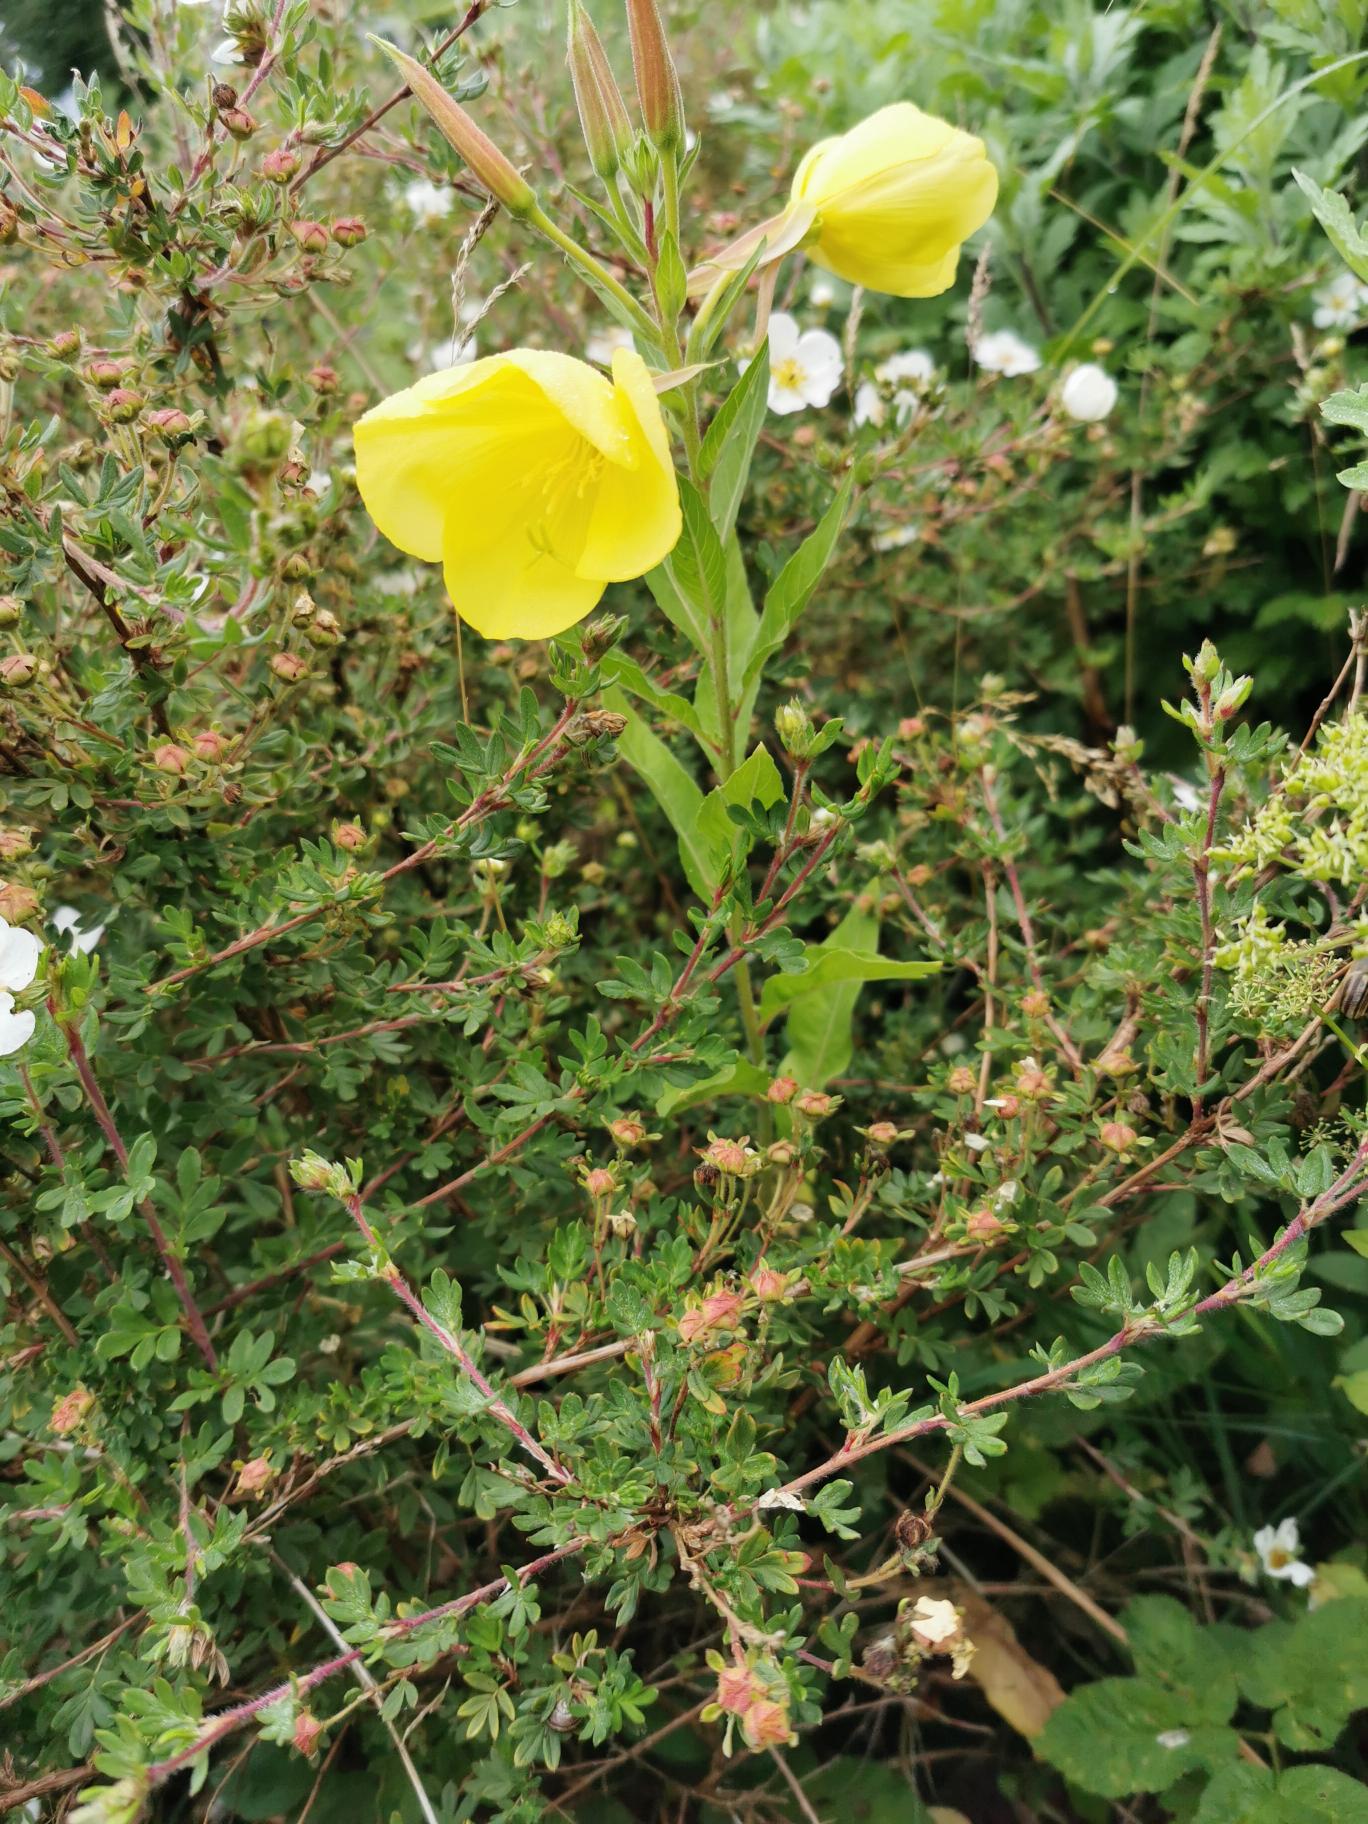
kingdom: Plantae
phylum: Tracheophyta
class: Magnoliopsida
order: Myrtales
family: Onagraceae
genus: Oenothera
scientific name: Oenothera glazioviana
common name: Kæmpe-natlys
